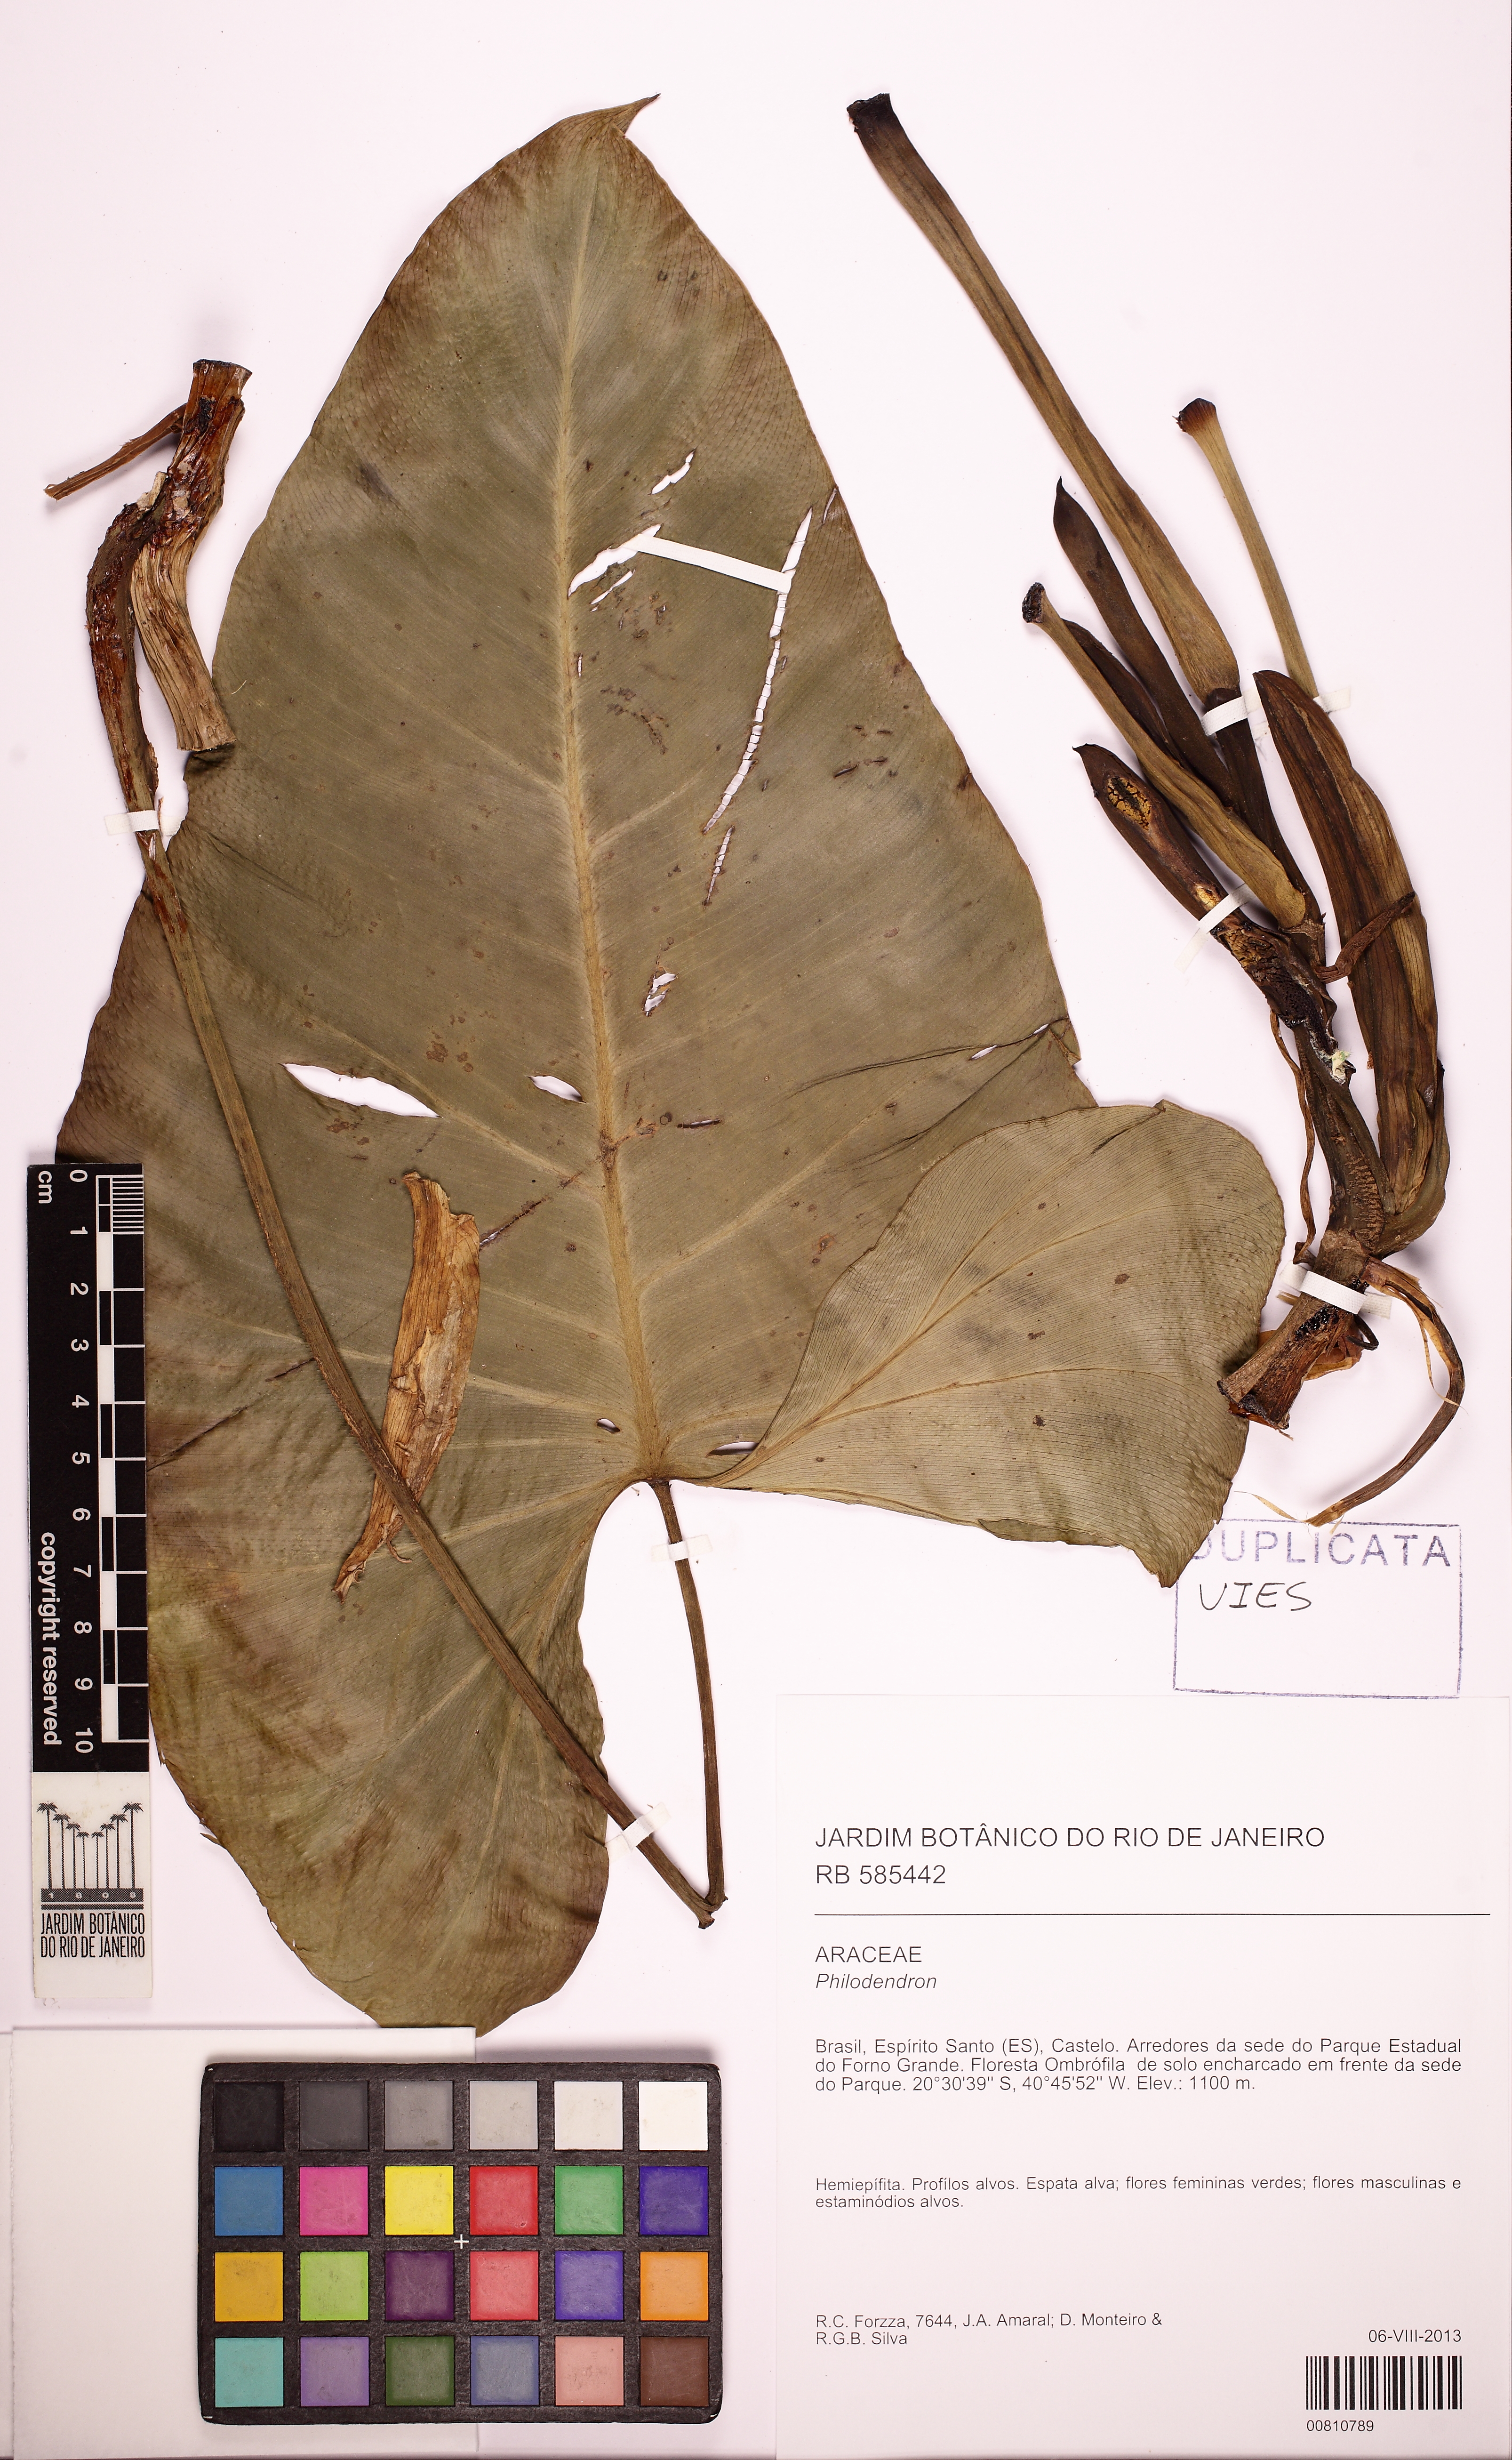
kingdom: Plantae
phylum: Tracheophyta
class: Liliopsida
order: Alismatales
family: Araceae
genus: Philodendron
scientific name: Philodendron appendiculatum
